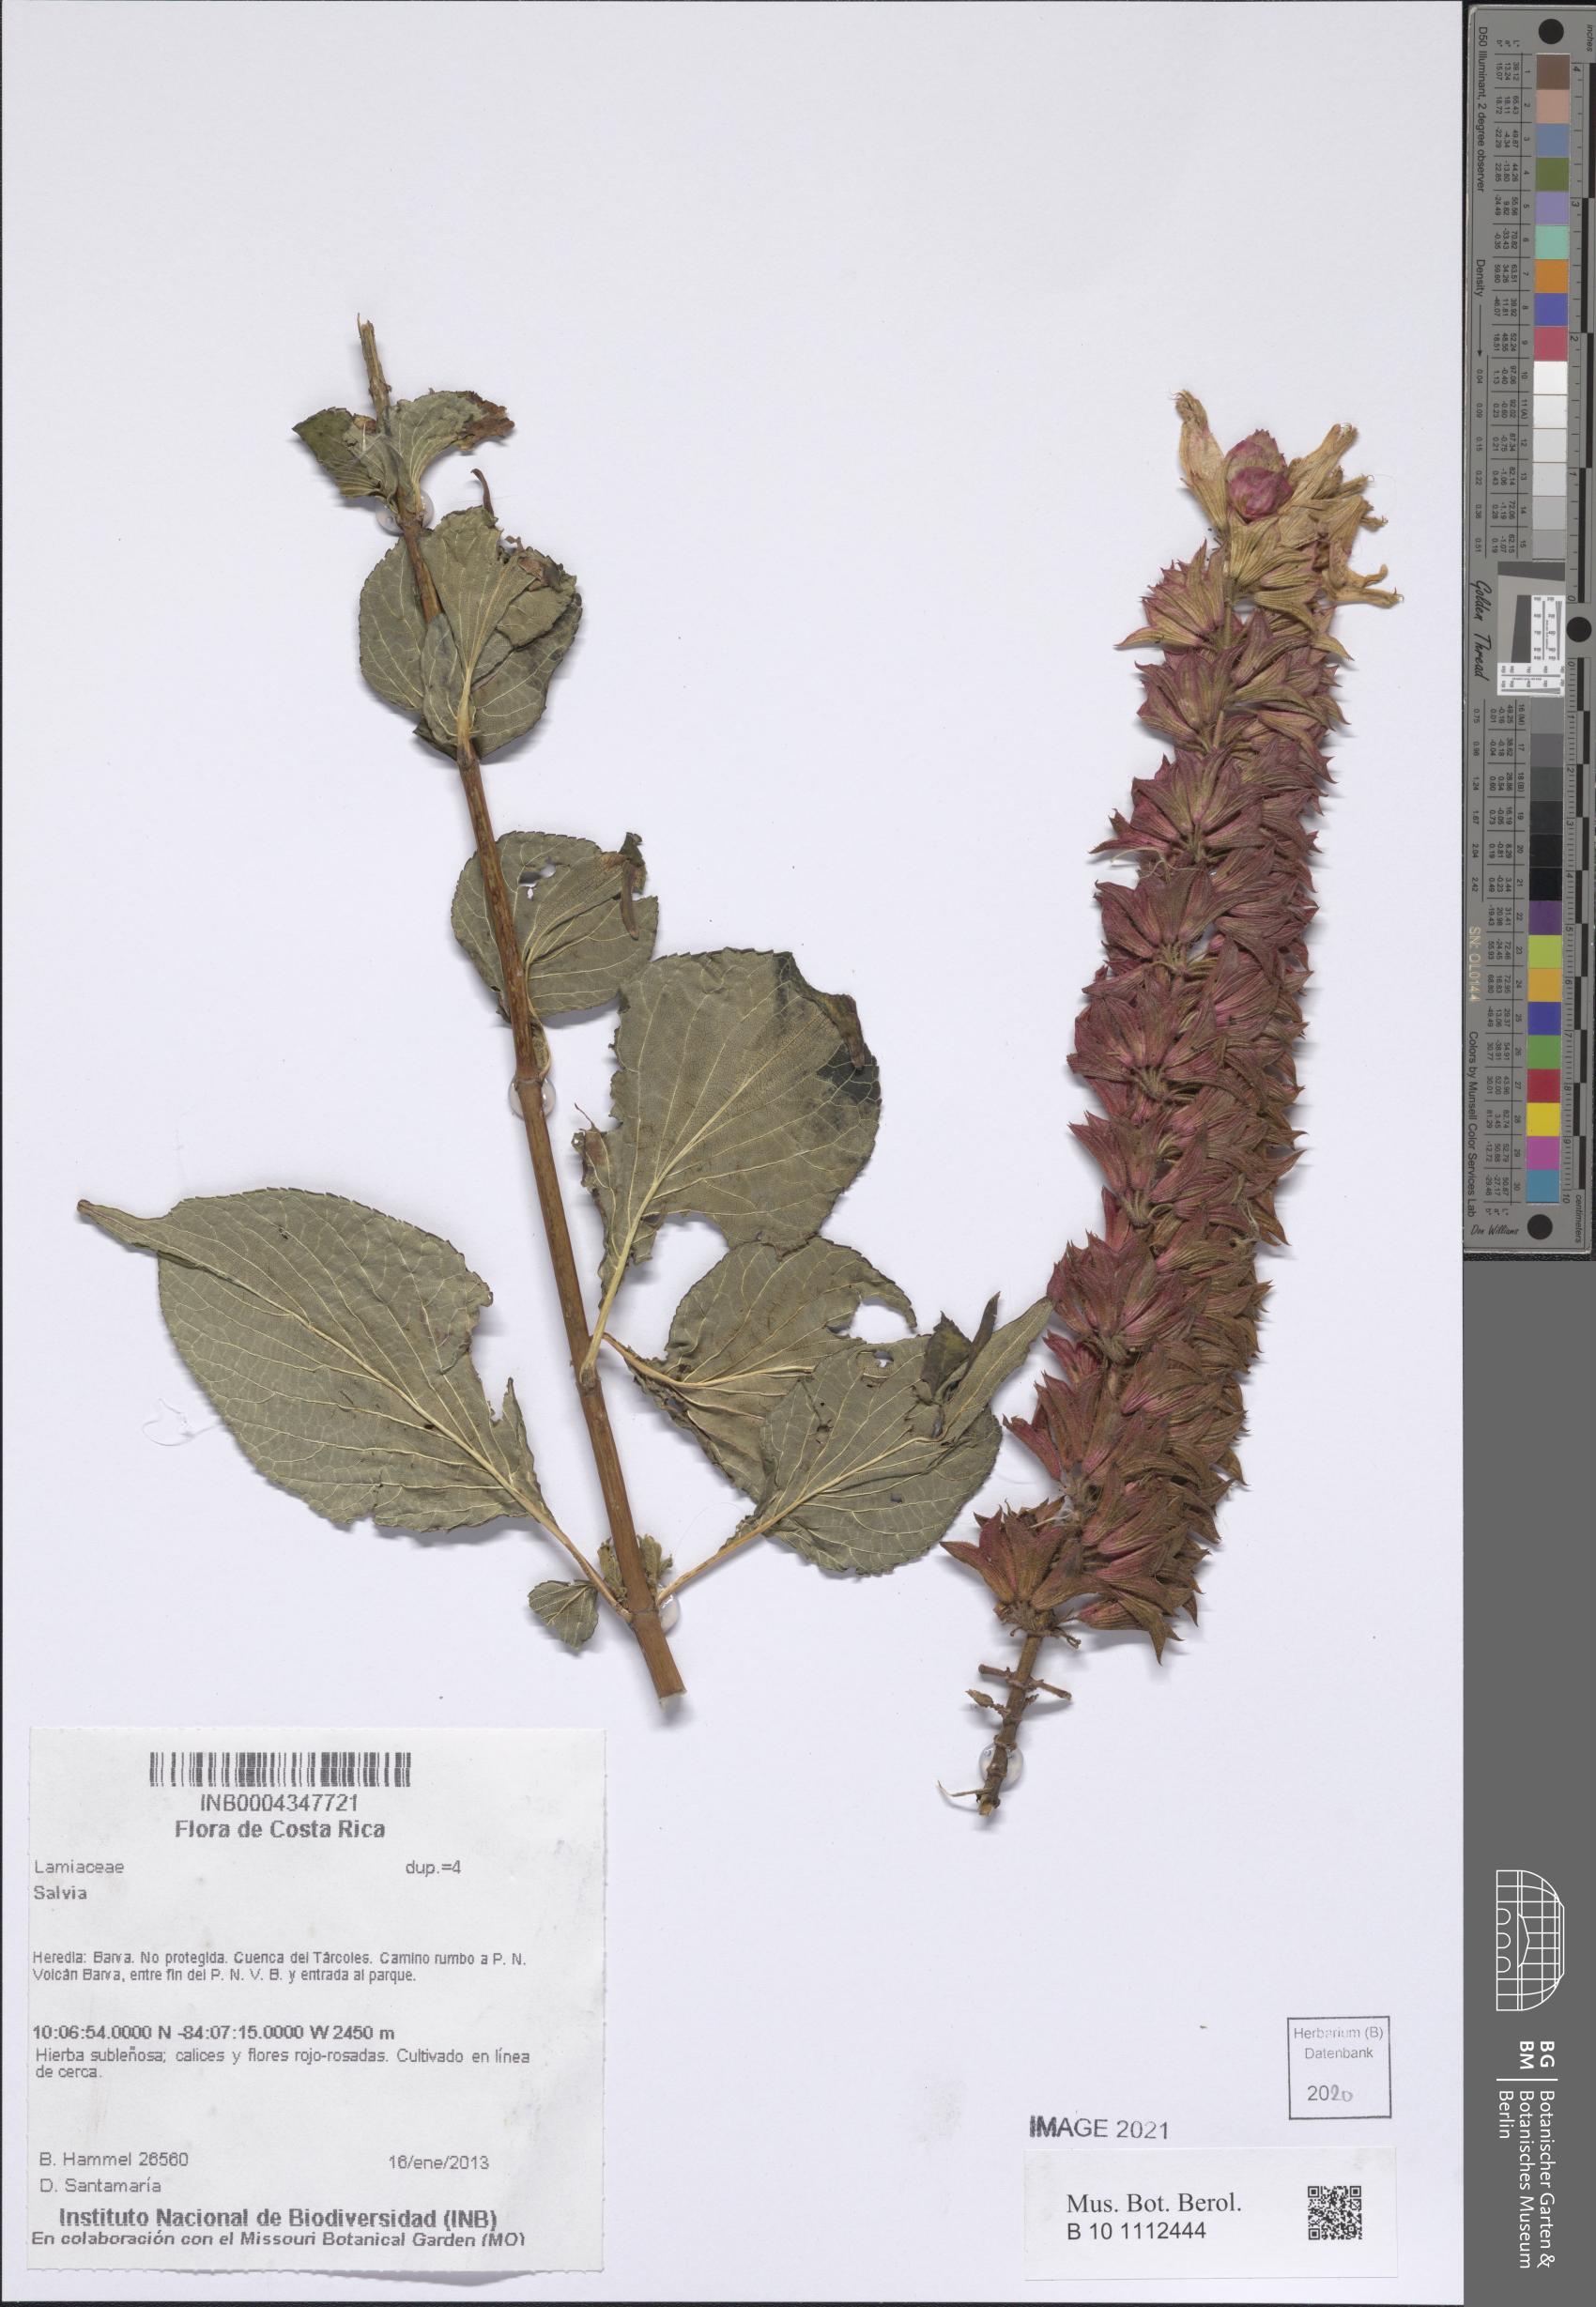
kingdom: Plantae
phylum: Tracheophyta
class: Magnoliopsida
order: Lamiales
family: Lamiaceae
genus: Salvia
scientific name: Salvia
